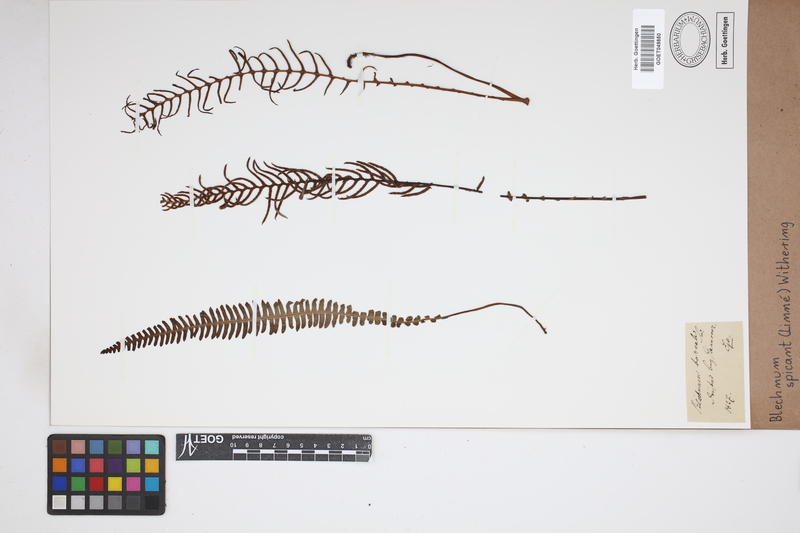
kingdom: Plantae
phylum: Tracheophyta
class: Polypodiopsida
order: Polypodiales
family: Blechnaceae
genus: Struthiopteris
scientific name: Struthiopteris spicant
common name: Deer fern
